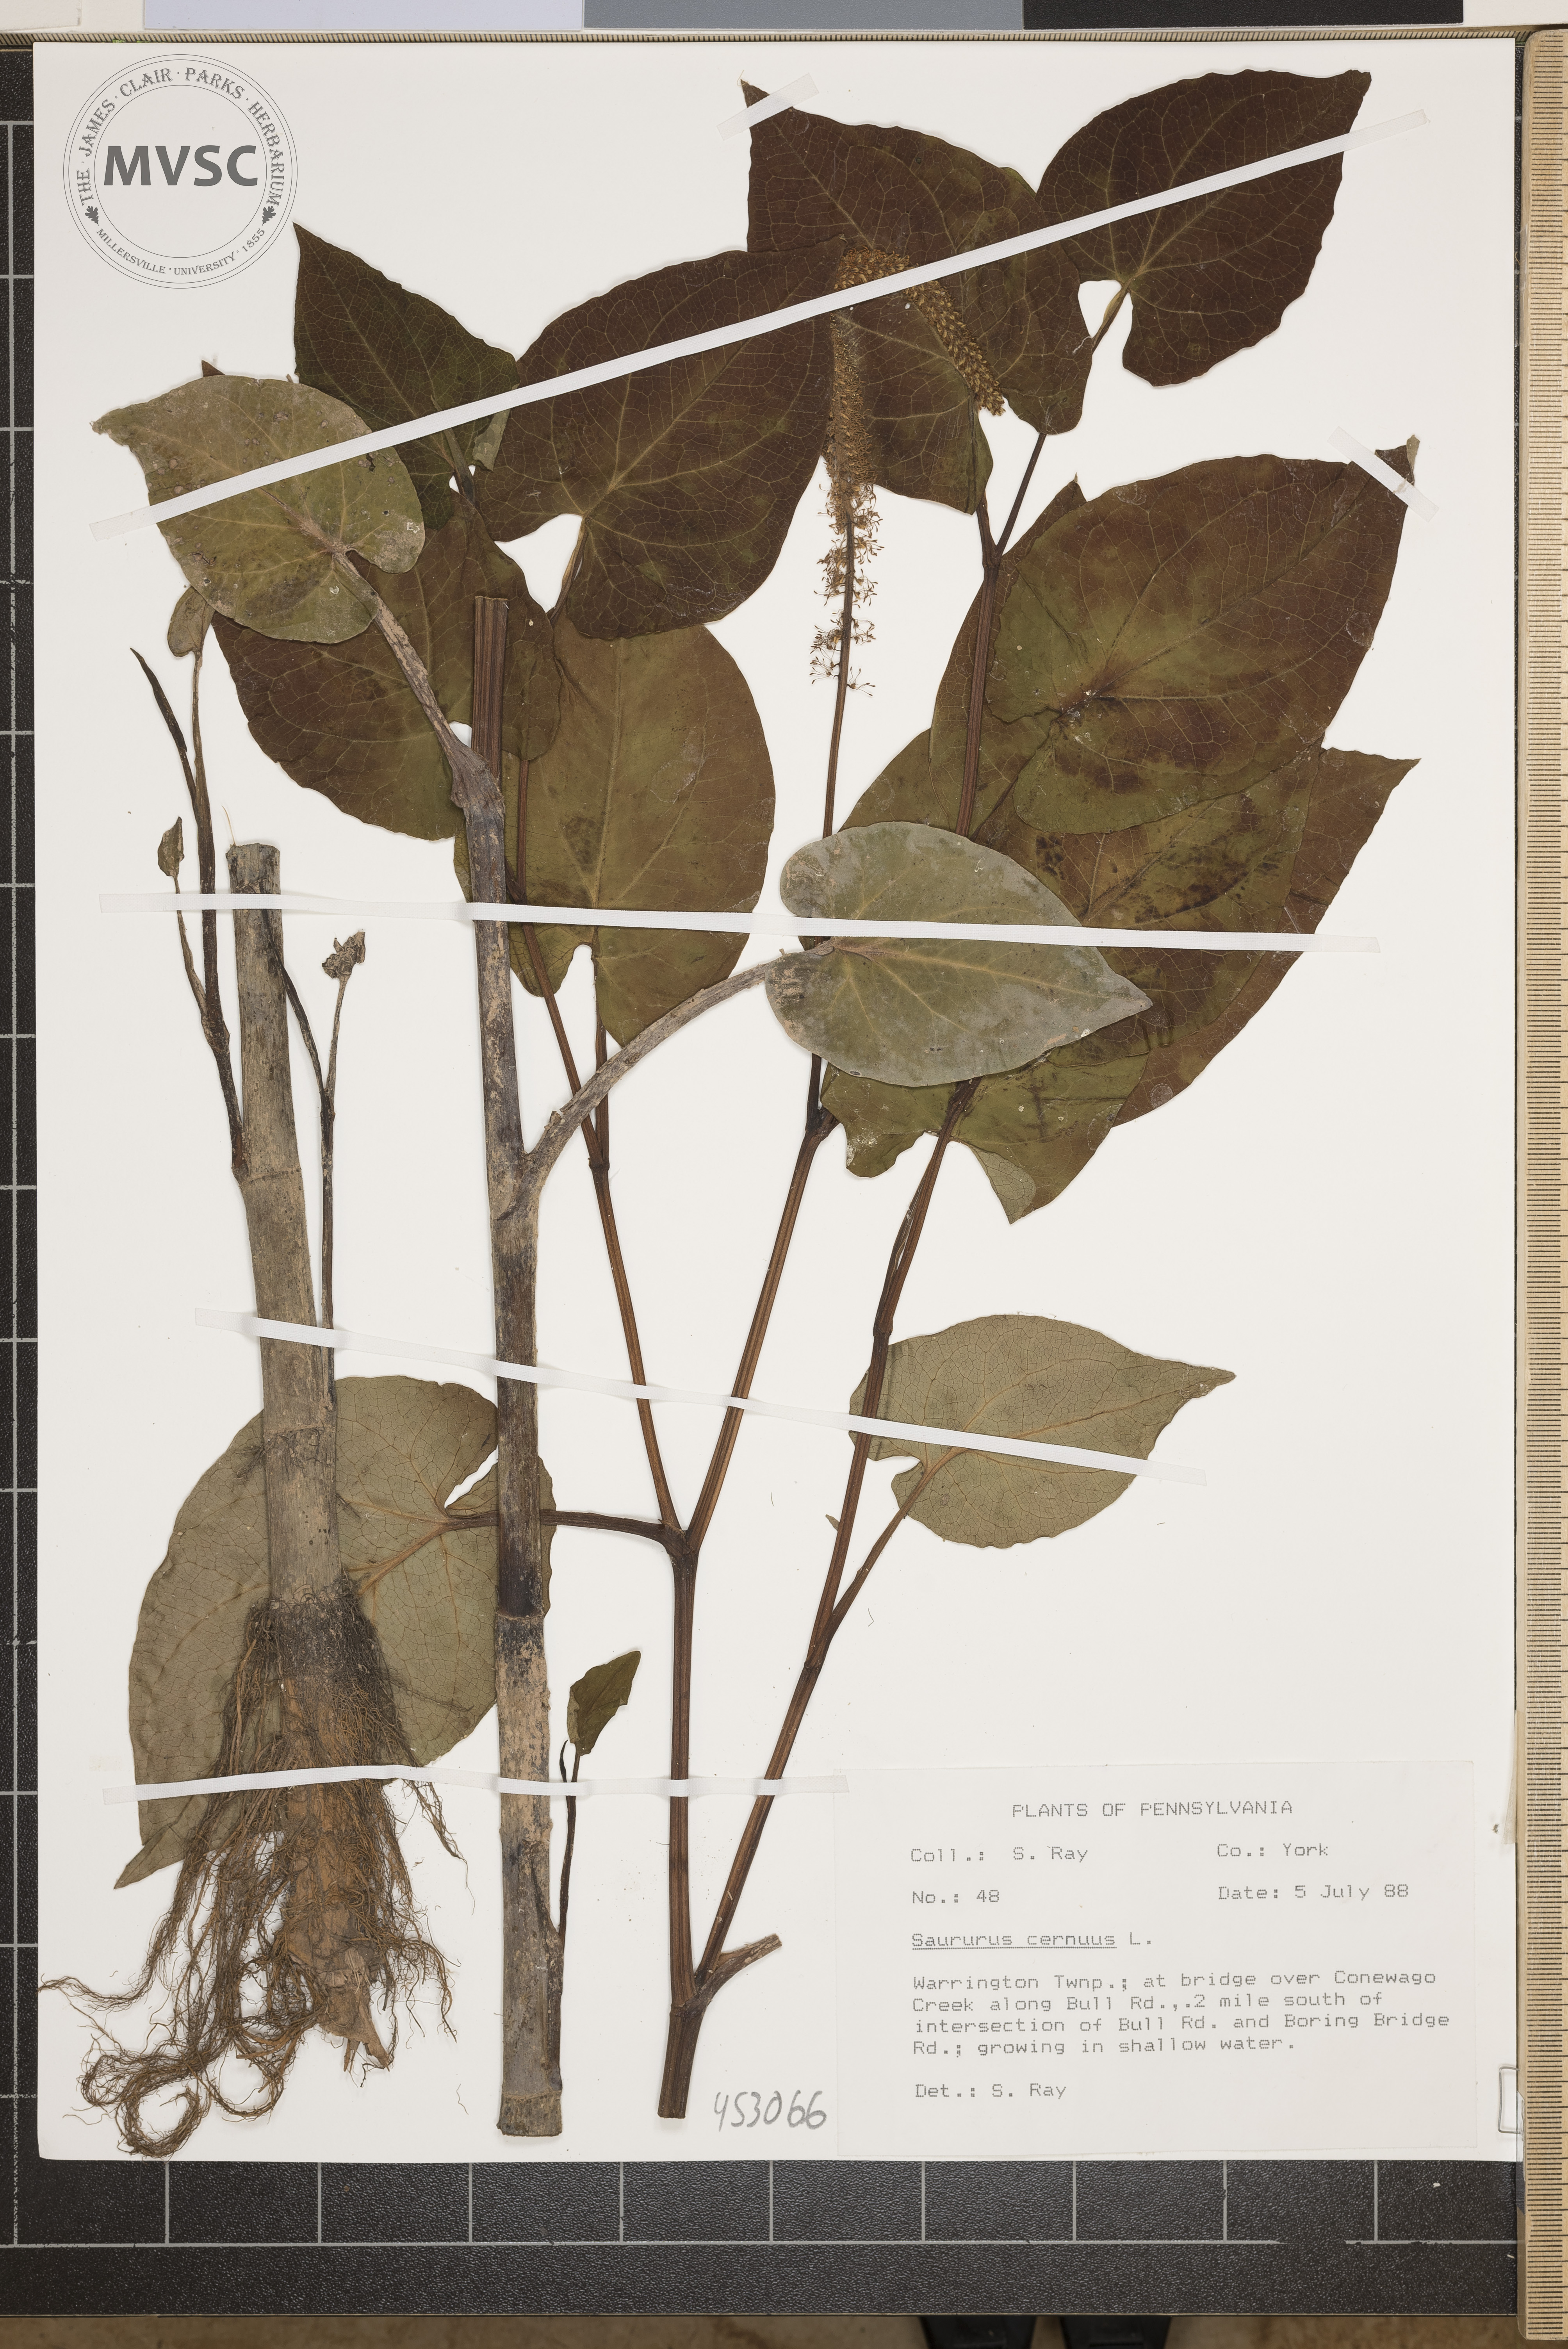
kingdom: Plantae
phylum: Tracheophyta
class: Magnoliopsida
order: Piperales
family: Saururaceae
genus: Saururus
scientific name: Saururus cernuus
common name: Lizard's-tail
